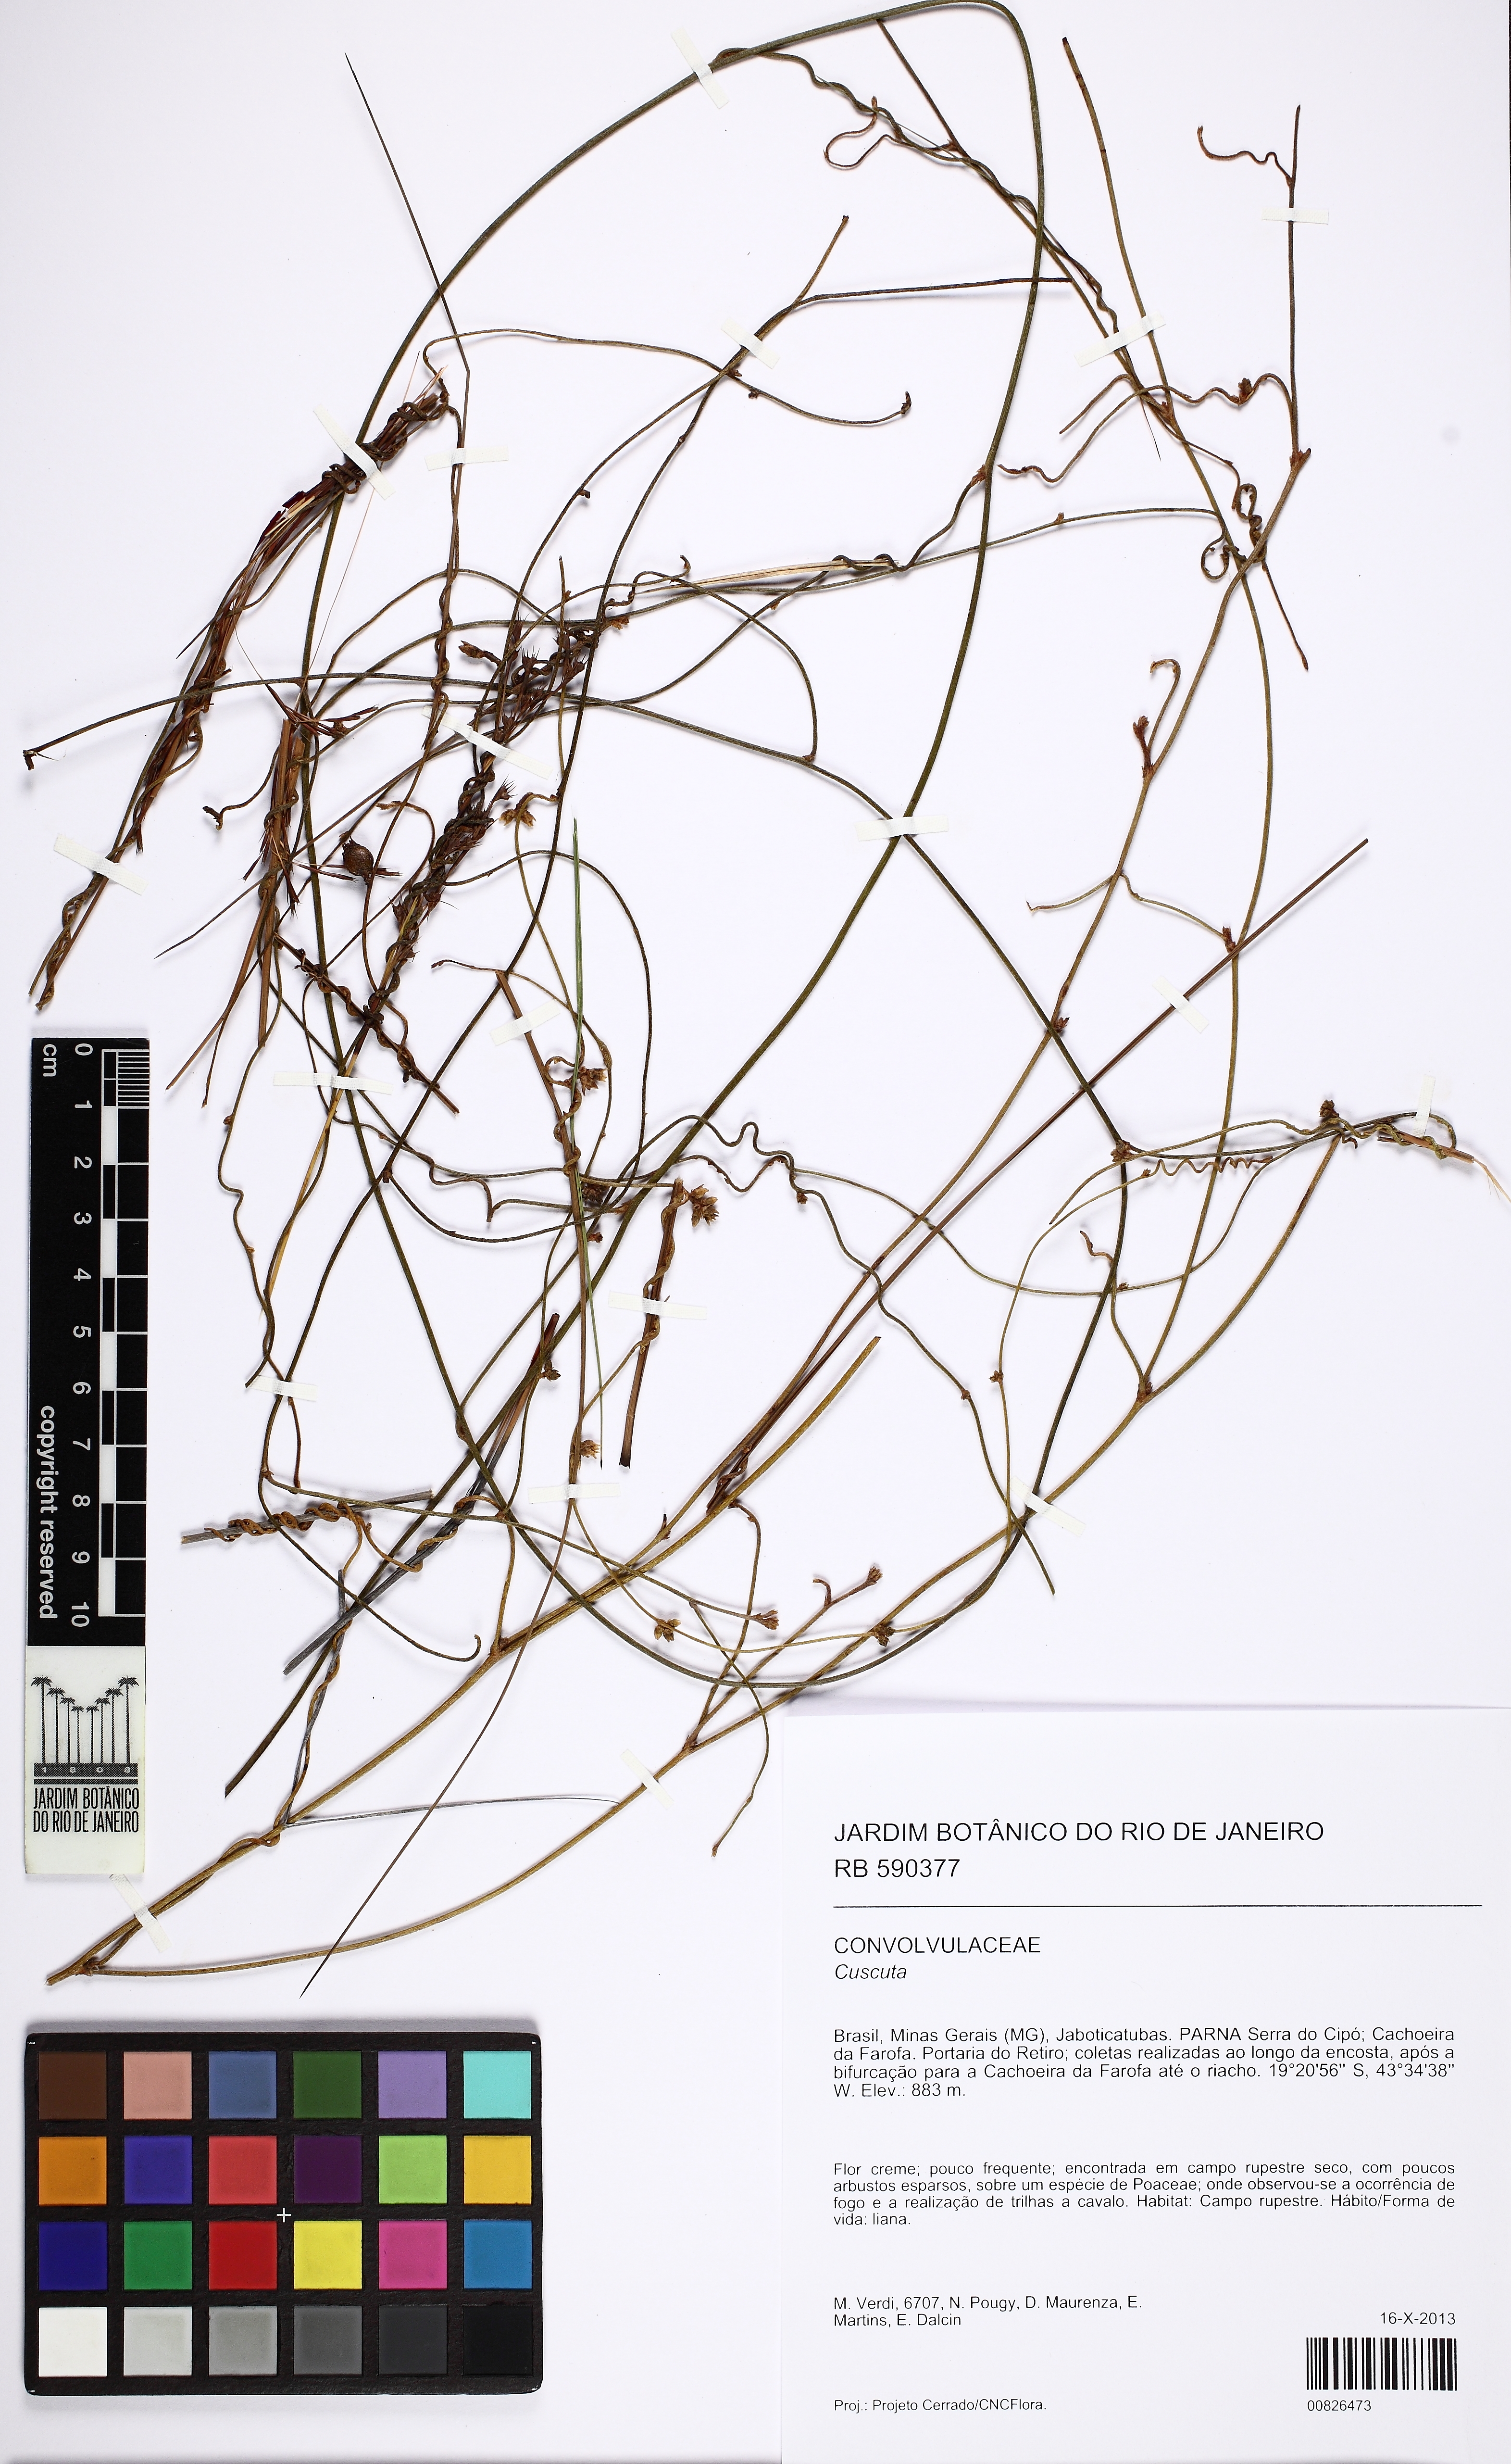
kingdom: Plantae
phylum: Tracheophyta
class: Magnoliopsida
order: Solanales
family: Convolvulaceae
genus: Cuscuta
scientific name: Cuscuta
